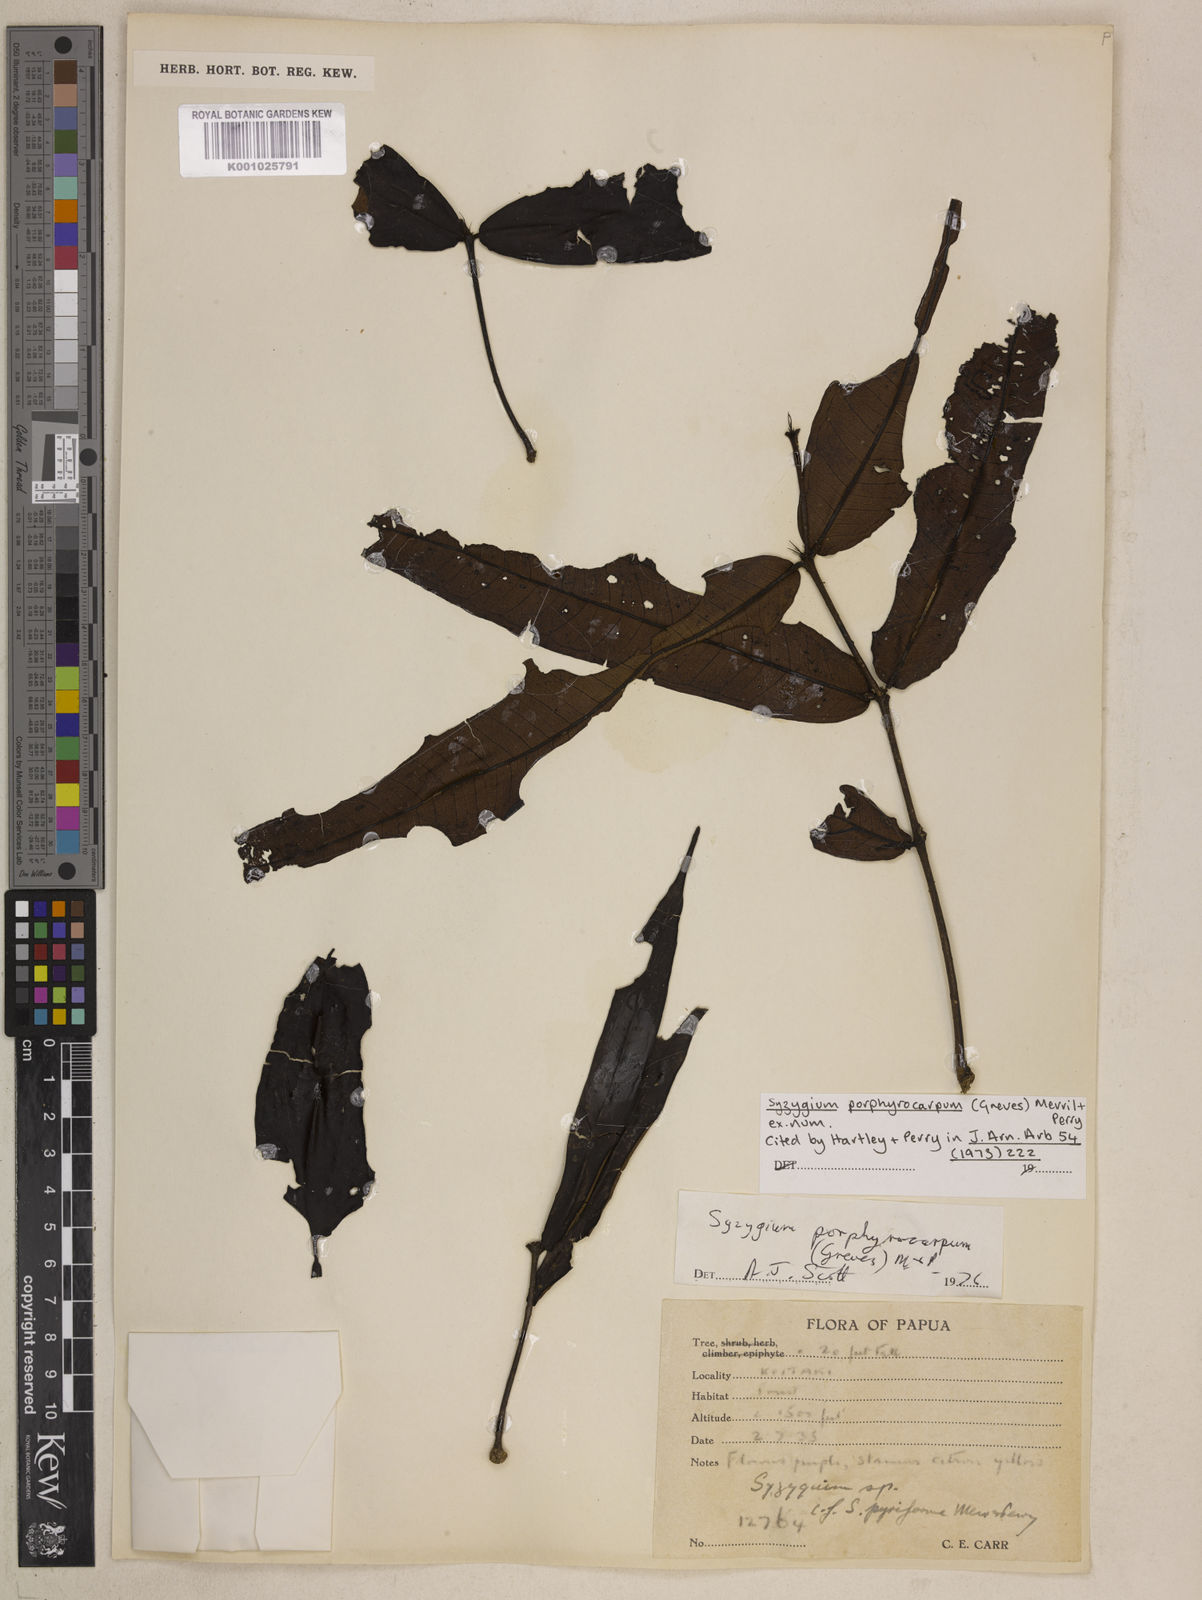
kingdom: Plantae
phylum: Tracheophyta
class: Magnoliopsida
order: Myrtales
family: Myrtaceae
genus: Syzygium
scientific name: Syzygium porphyrocarpum
